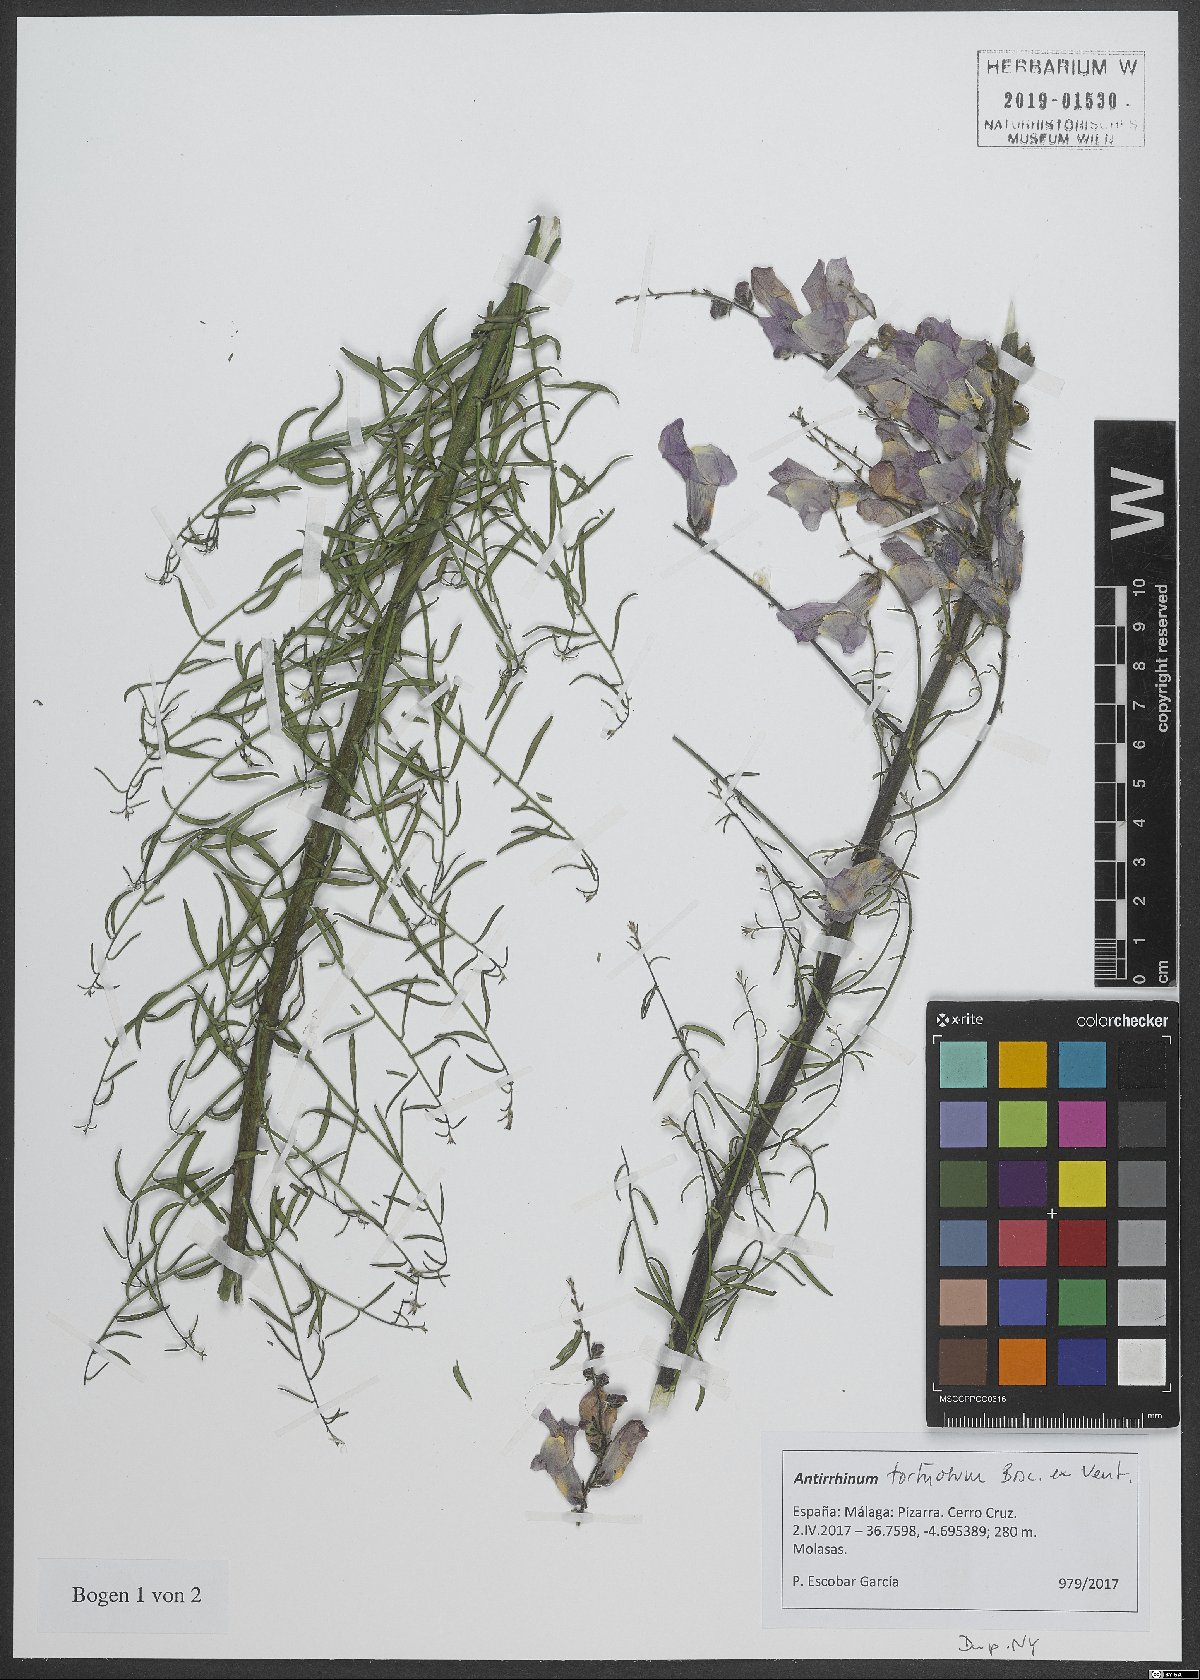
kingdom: Plantae
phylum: Tracheophyta
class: Magnoliopsida
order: Lamiales
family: Plantaginaceae
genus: Antirrhinum
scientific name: Antirrhinum tortuosum
